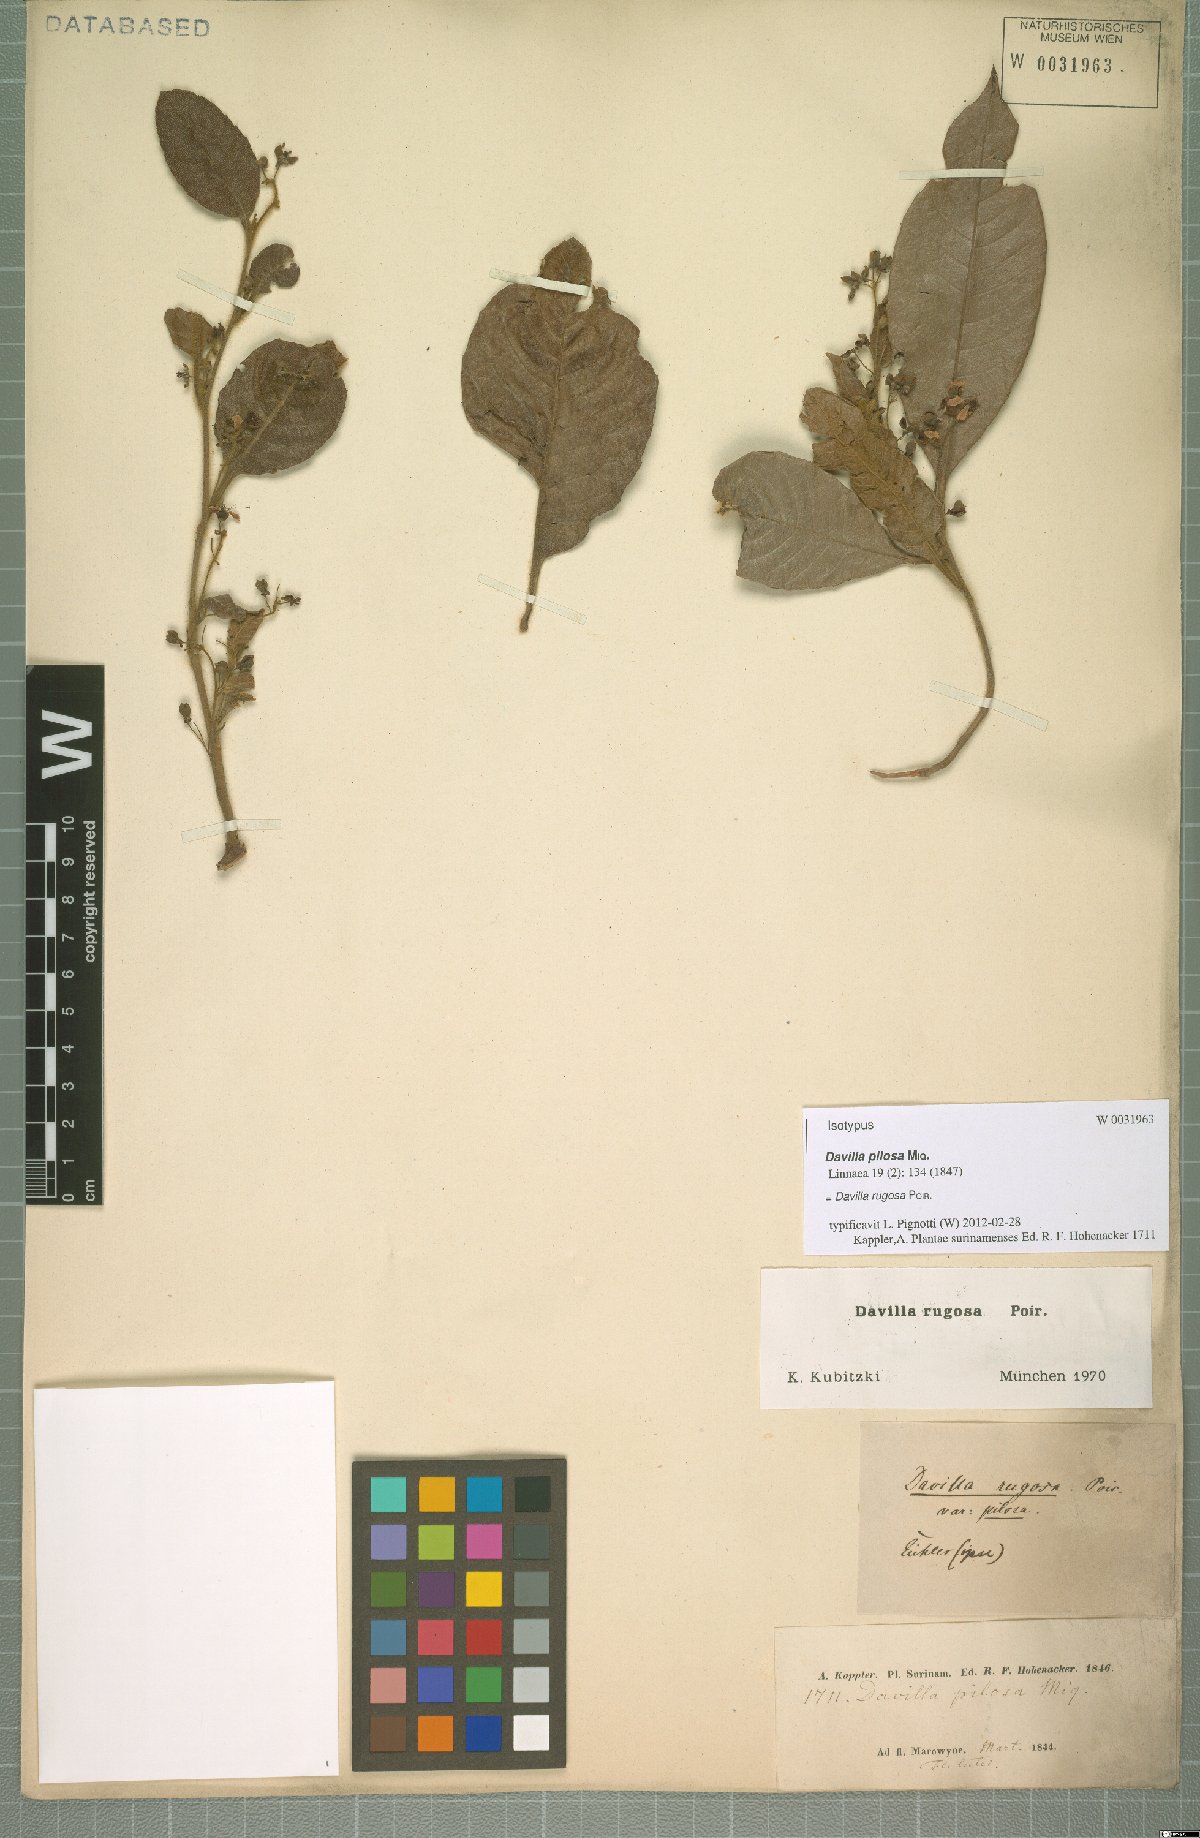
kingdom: Plantae
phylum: Tracheophyta
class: Magnoliopsida
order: Dilleniales
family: Dilleniaceae
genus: Davilla
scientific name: Davilla rugosa
